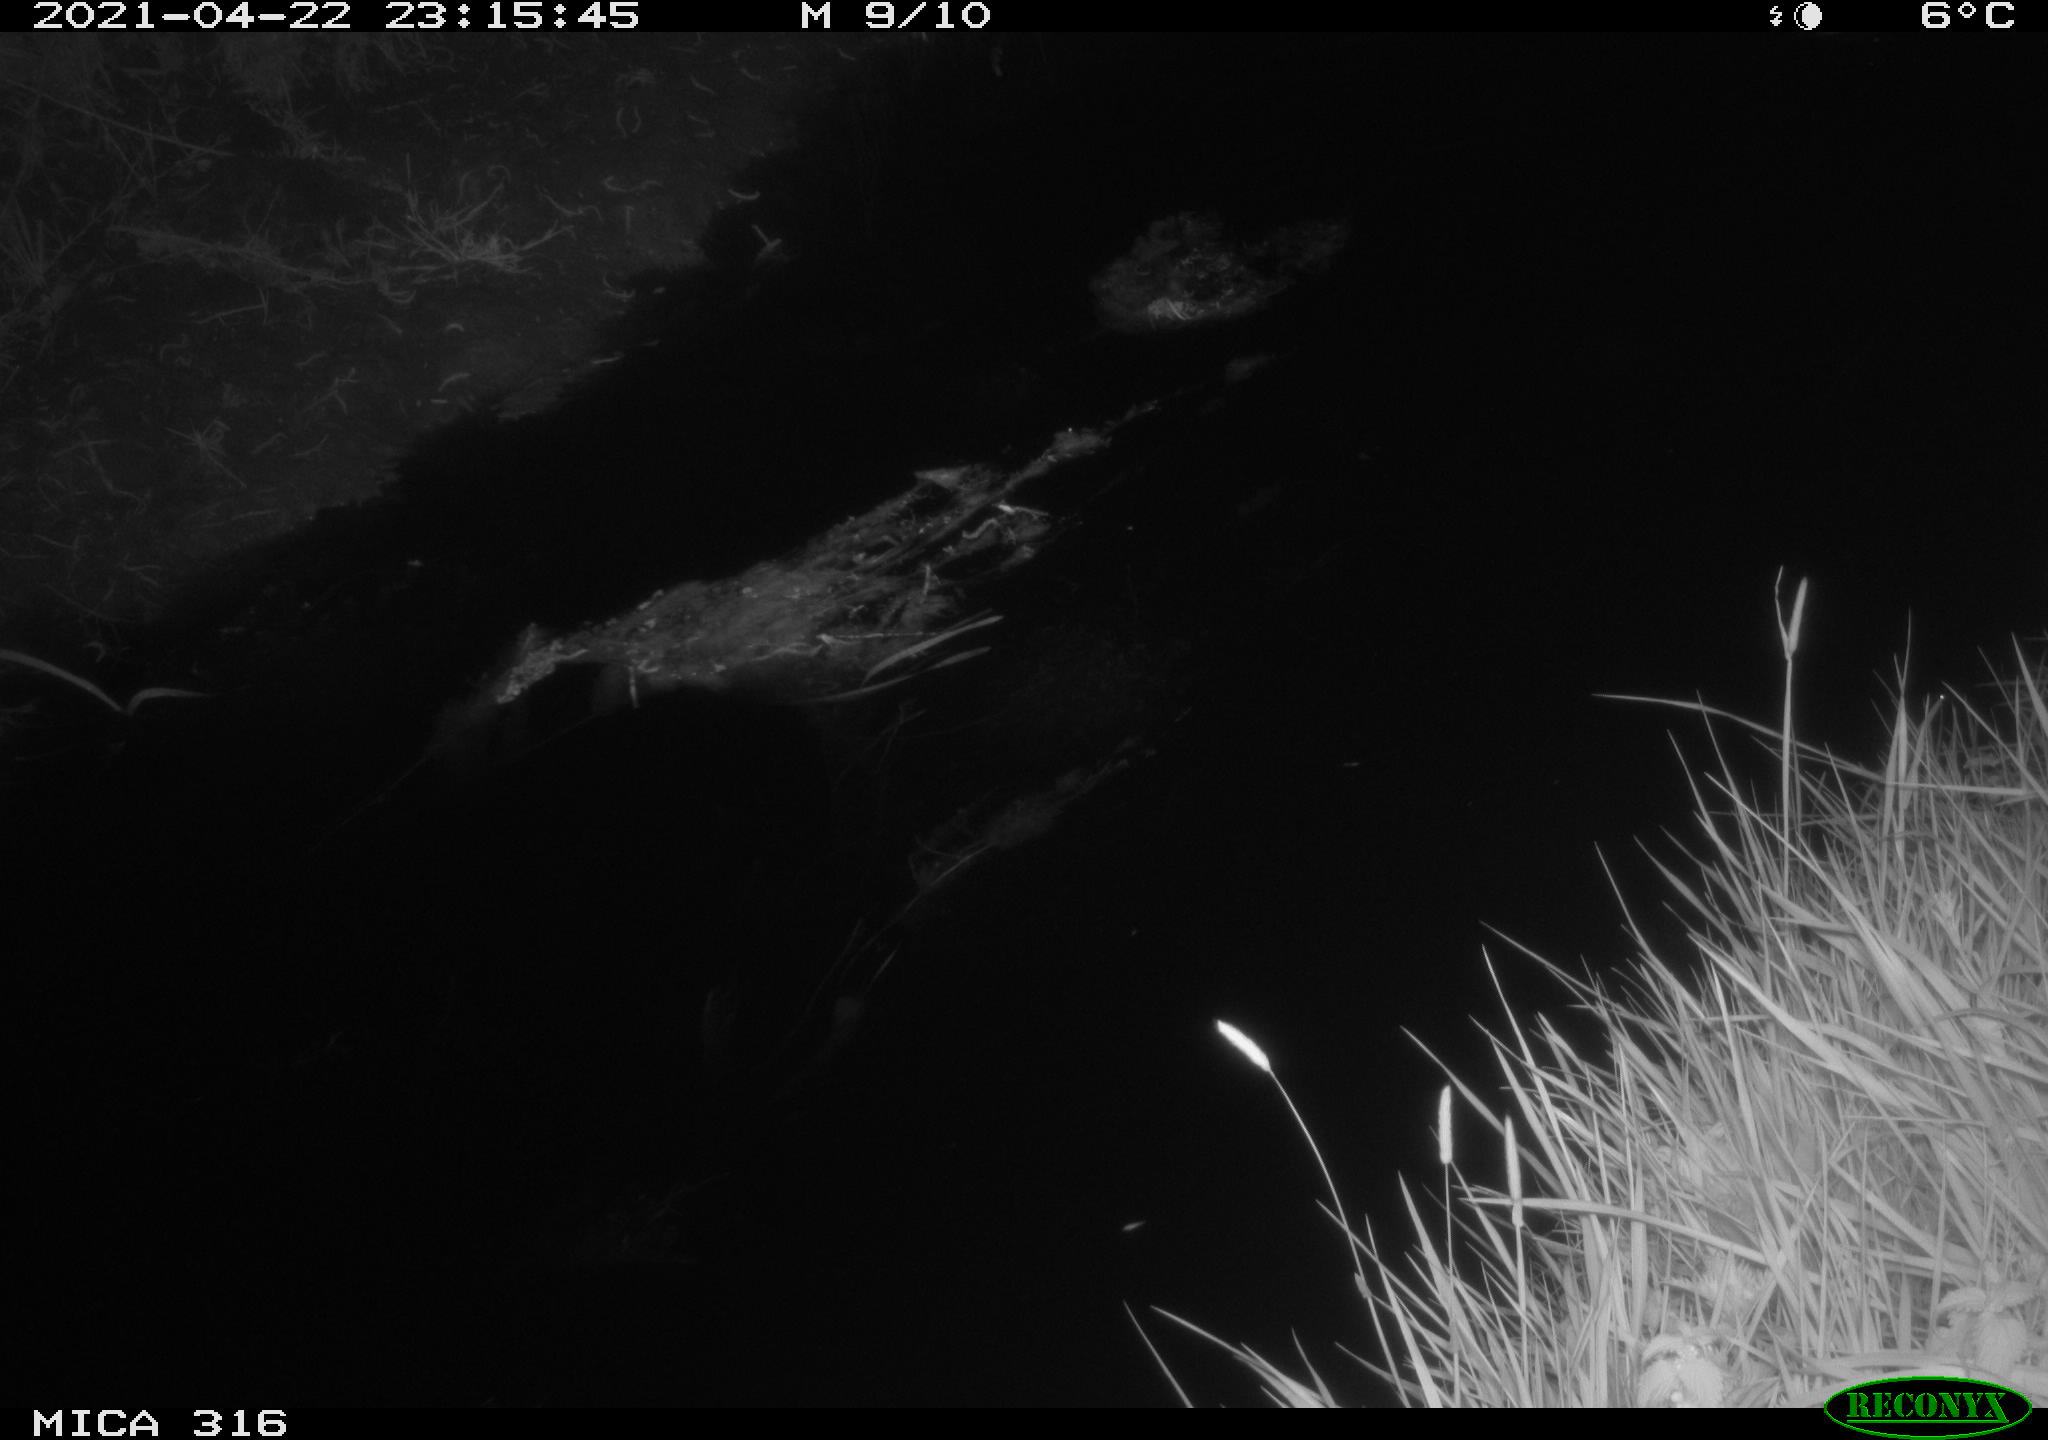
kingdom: Animalia
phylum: Chordata
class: Aves
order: Anseriformes
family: Anatidae
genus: Anas
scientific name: Anas platyrhynchos
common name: Mallard
